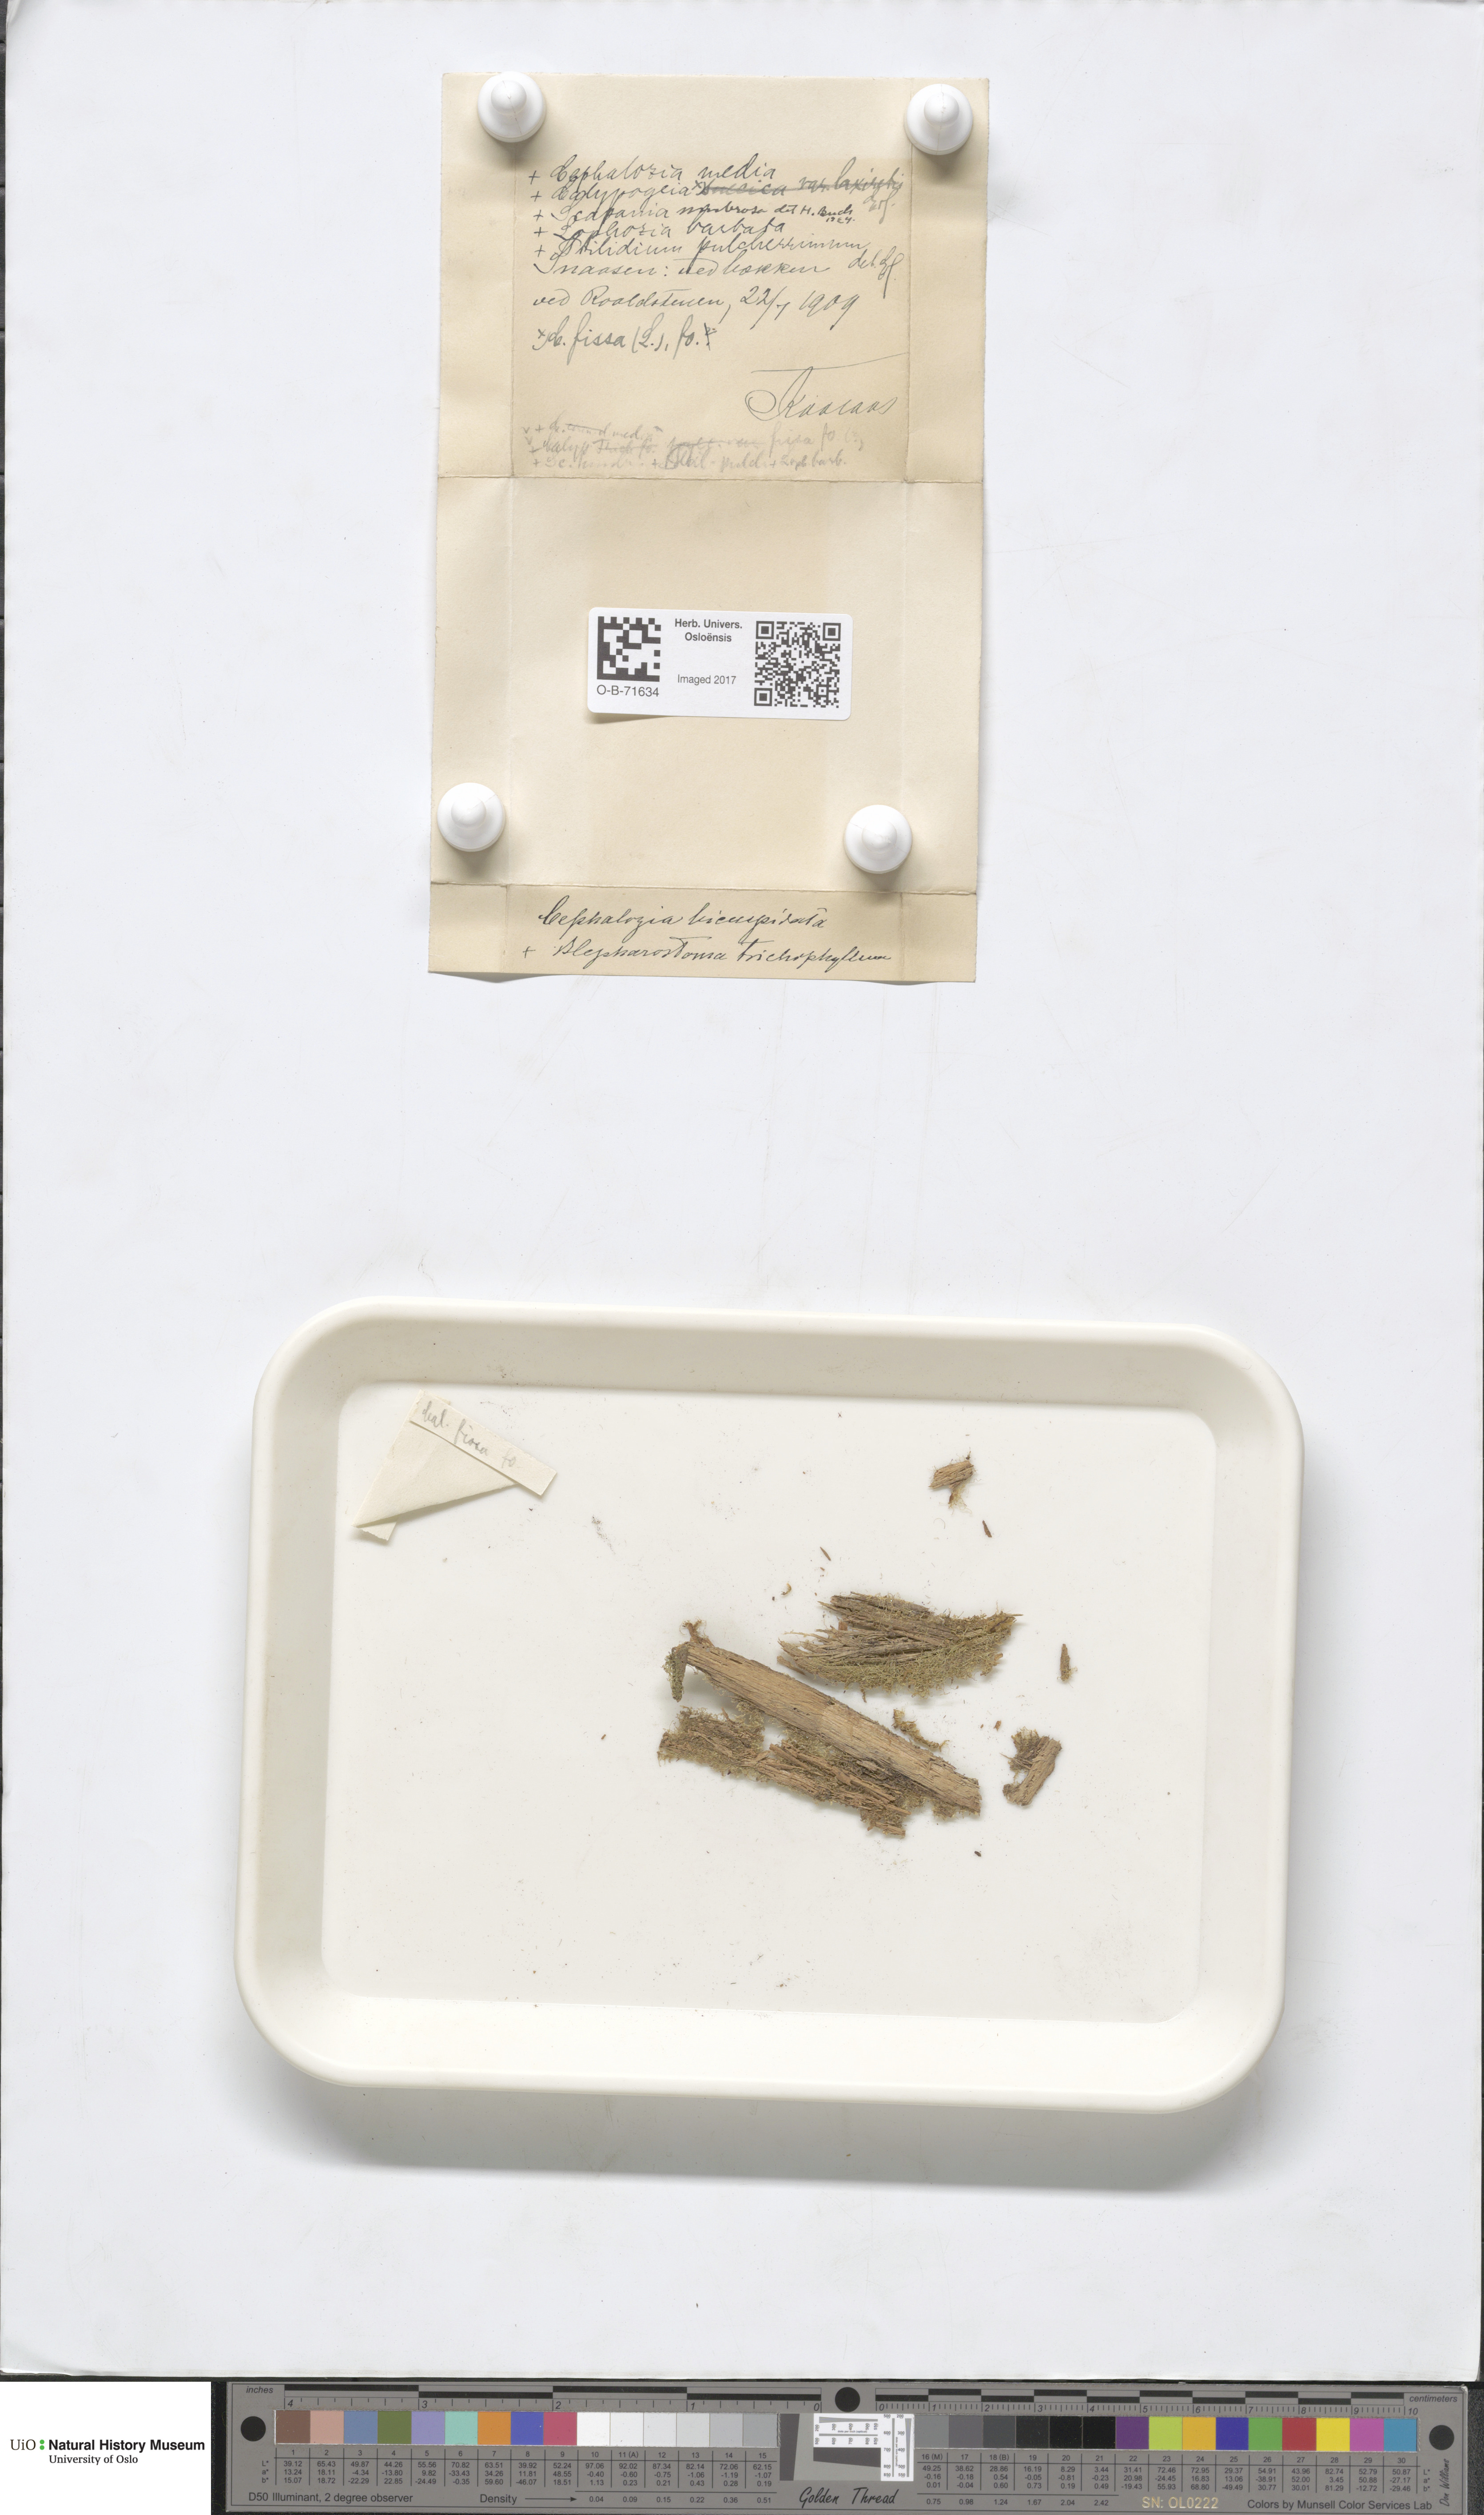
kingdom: Plantae
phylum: Marchantiophyta
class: Jungermanniopsida
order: Jungermanniales
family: Cephaloziaceae
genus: Cephalozia
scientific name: Cephalozia bicuspidata
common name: Two-horned pincerwort
